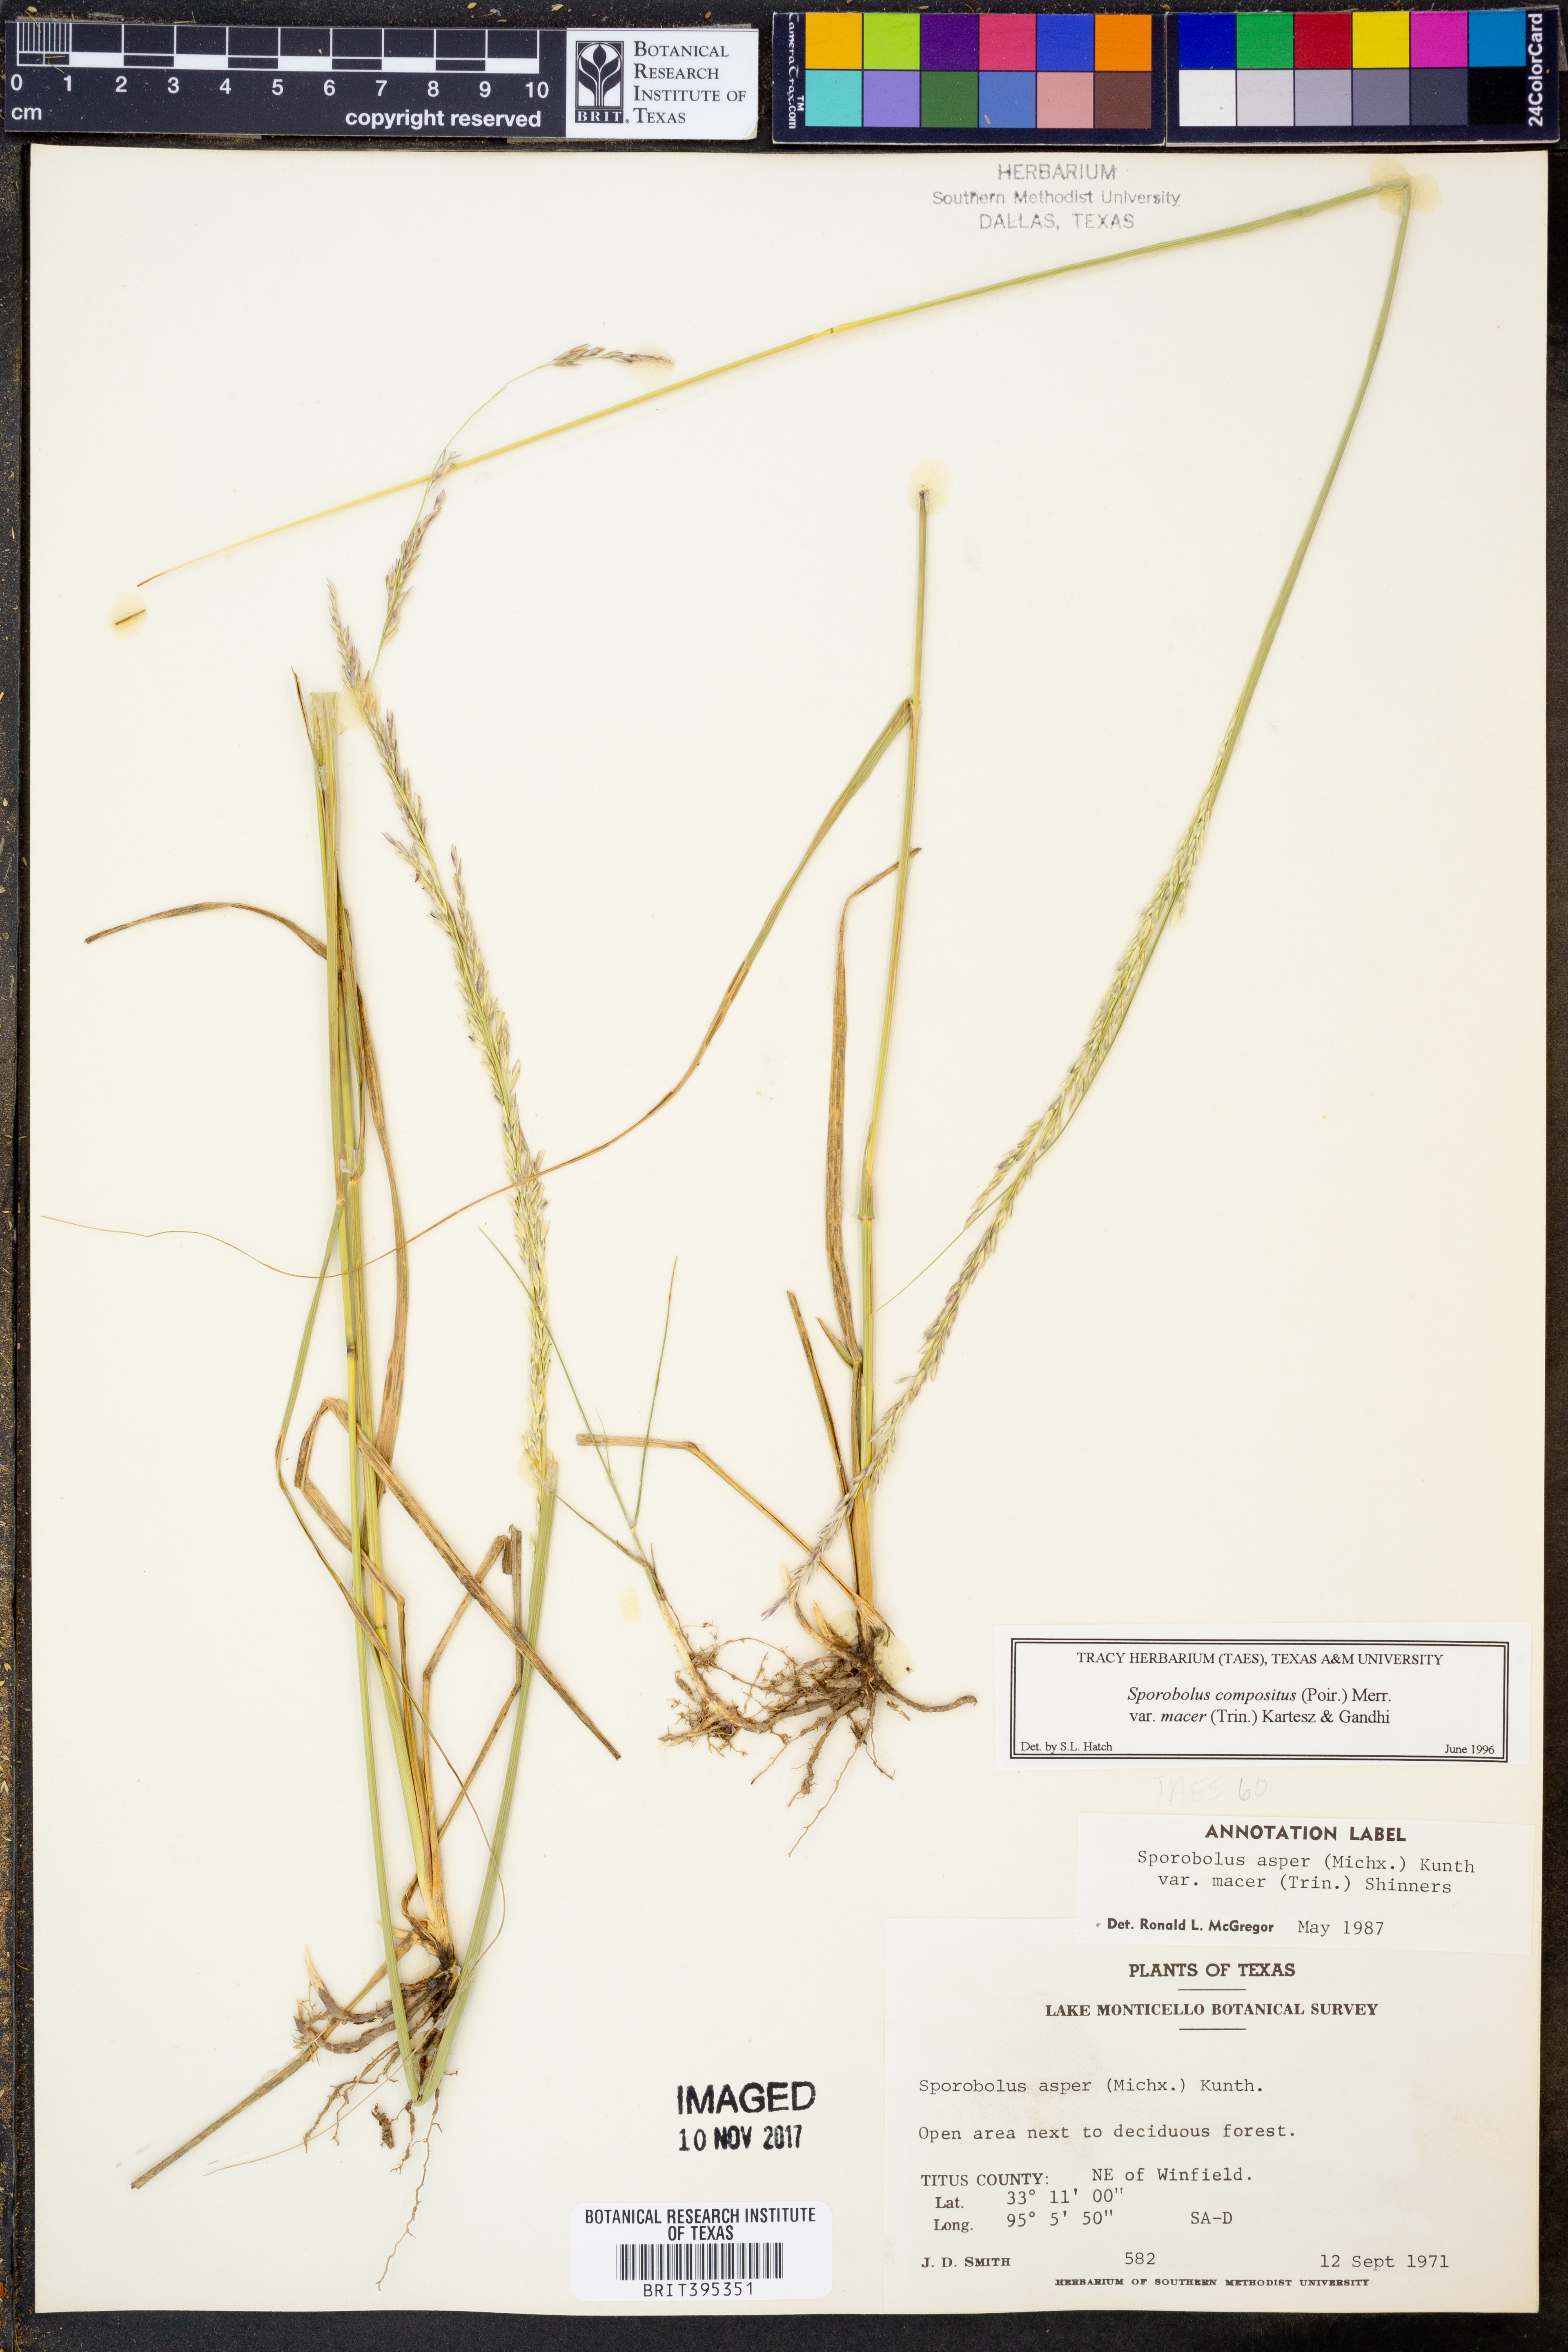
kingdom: Plantae
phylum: Tracheophyta
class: Liliopsida
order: Poales
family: Poaceae
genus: Sporobolus
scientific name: Sporobolus compositus
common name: Rough dropseed
